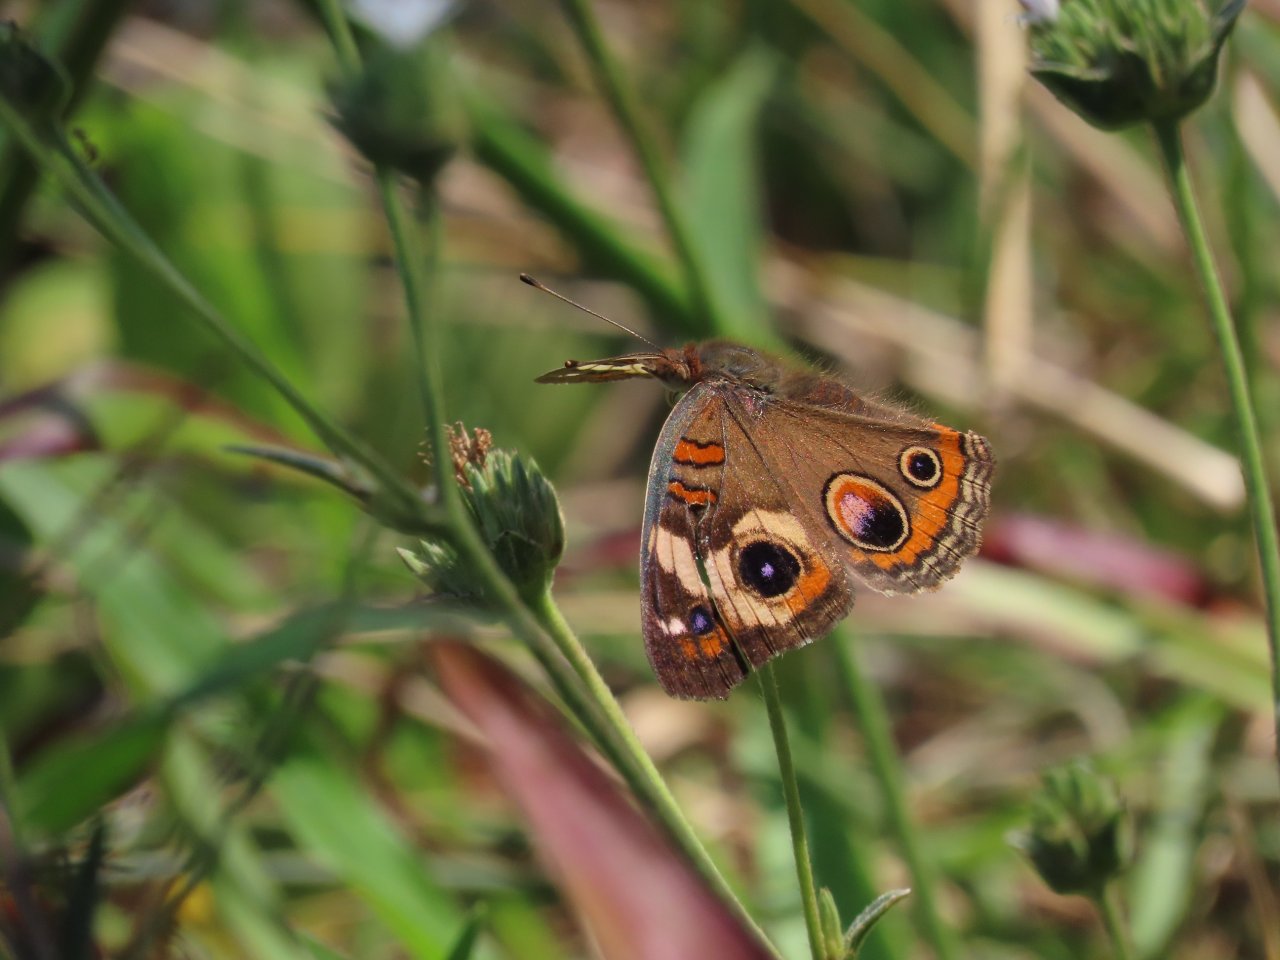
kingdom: Animalia
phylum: Arthropoda
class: Insecta
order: Lepidoptera
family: Nymphalidae
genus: Junonia
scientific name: Junonia coenia
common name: Common Buckeye
